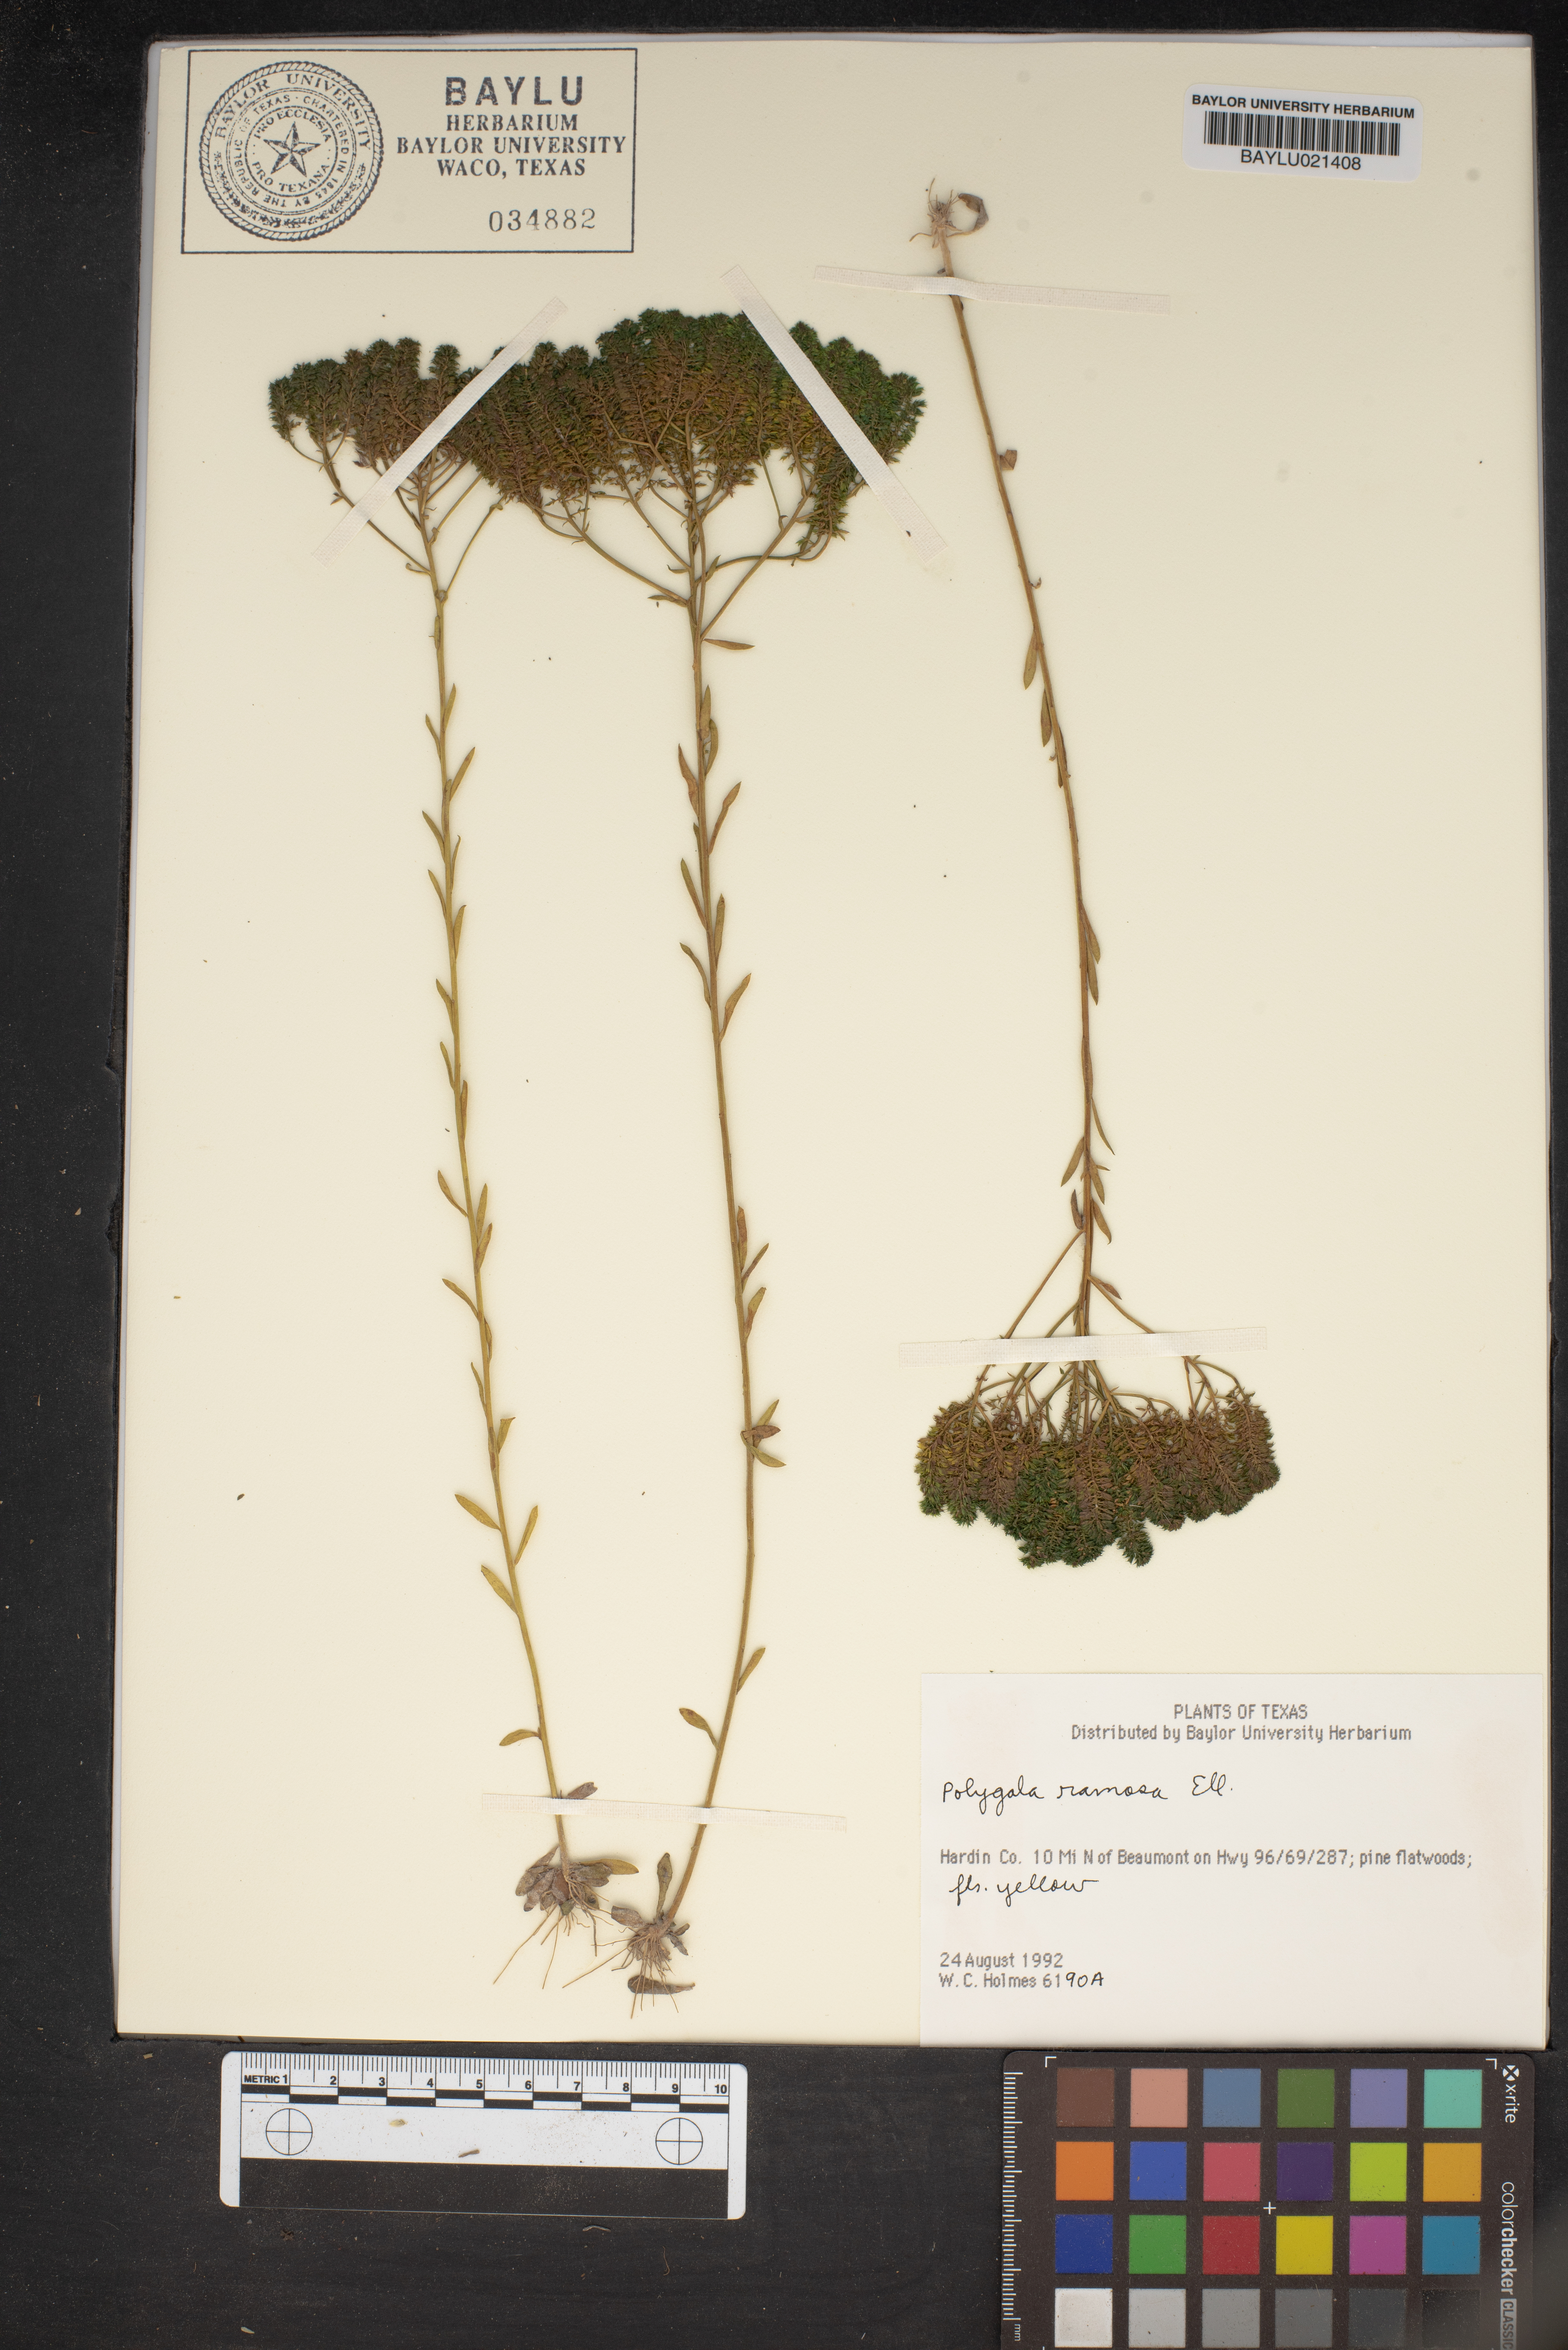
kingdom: Plantae
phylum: Tracheophyta
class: Magnoliopsida
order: Fabales
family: Polygalaceae
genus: Polygala
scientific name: Polygala ramosa
